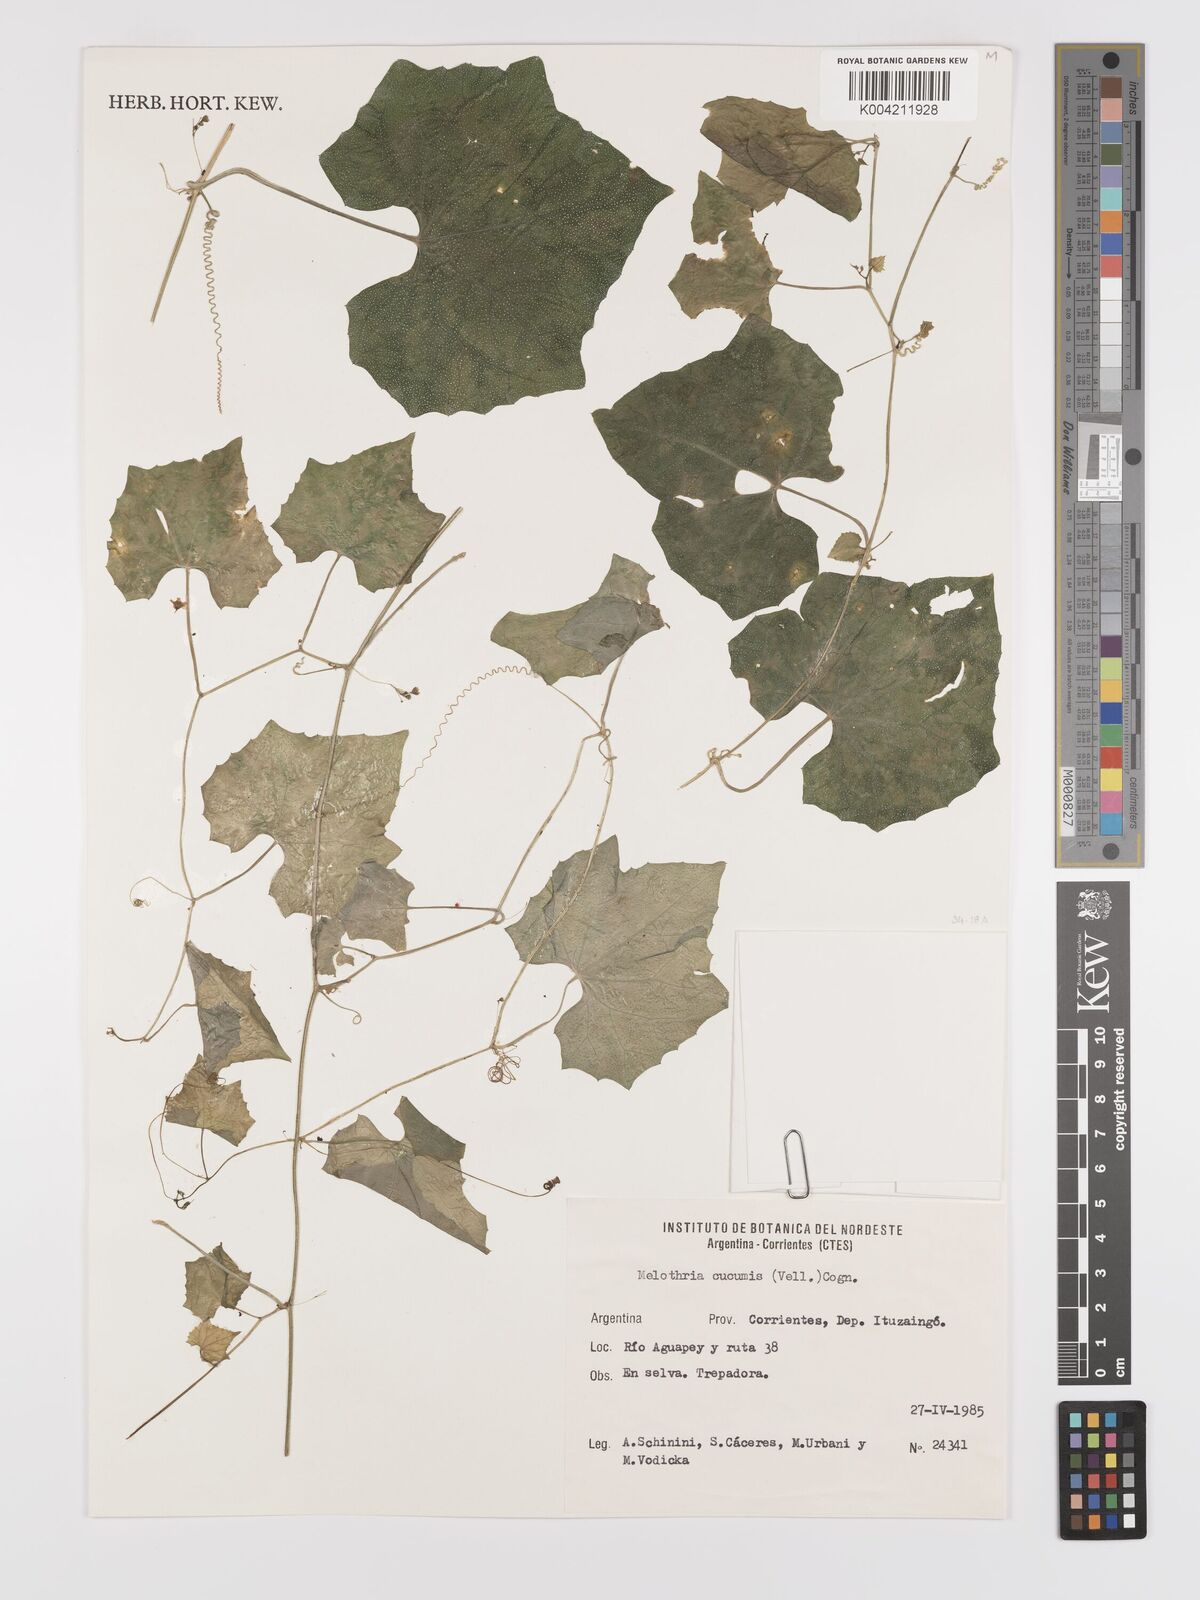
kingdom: Plantae
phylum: Tracheophyta
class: Magnoliopsida
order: Cucurbitales
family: Cucurbitaceae
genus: Melothria
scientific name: Melothria cucumis
